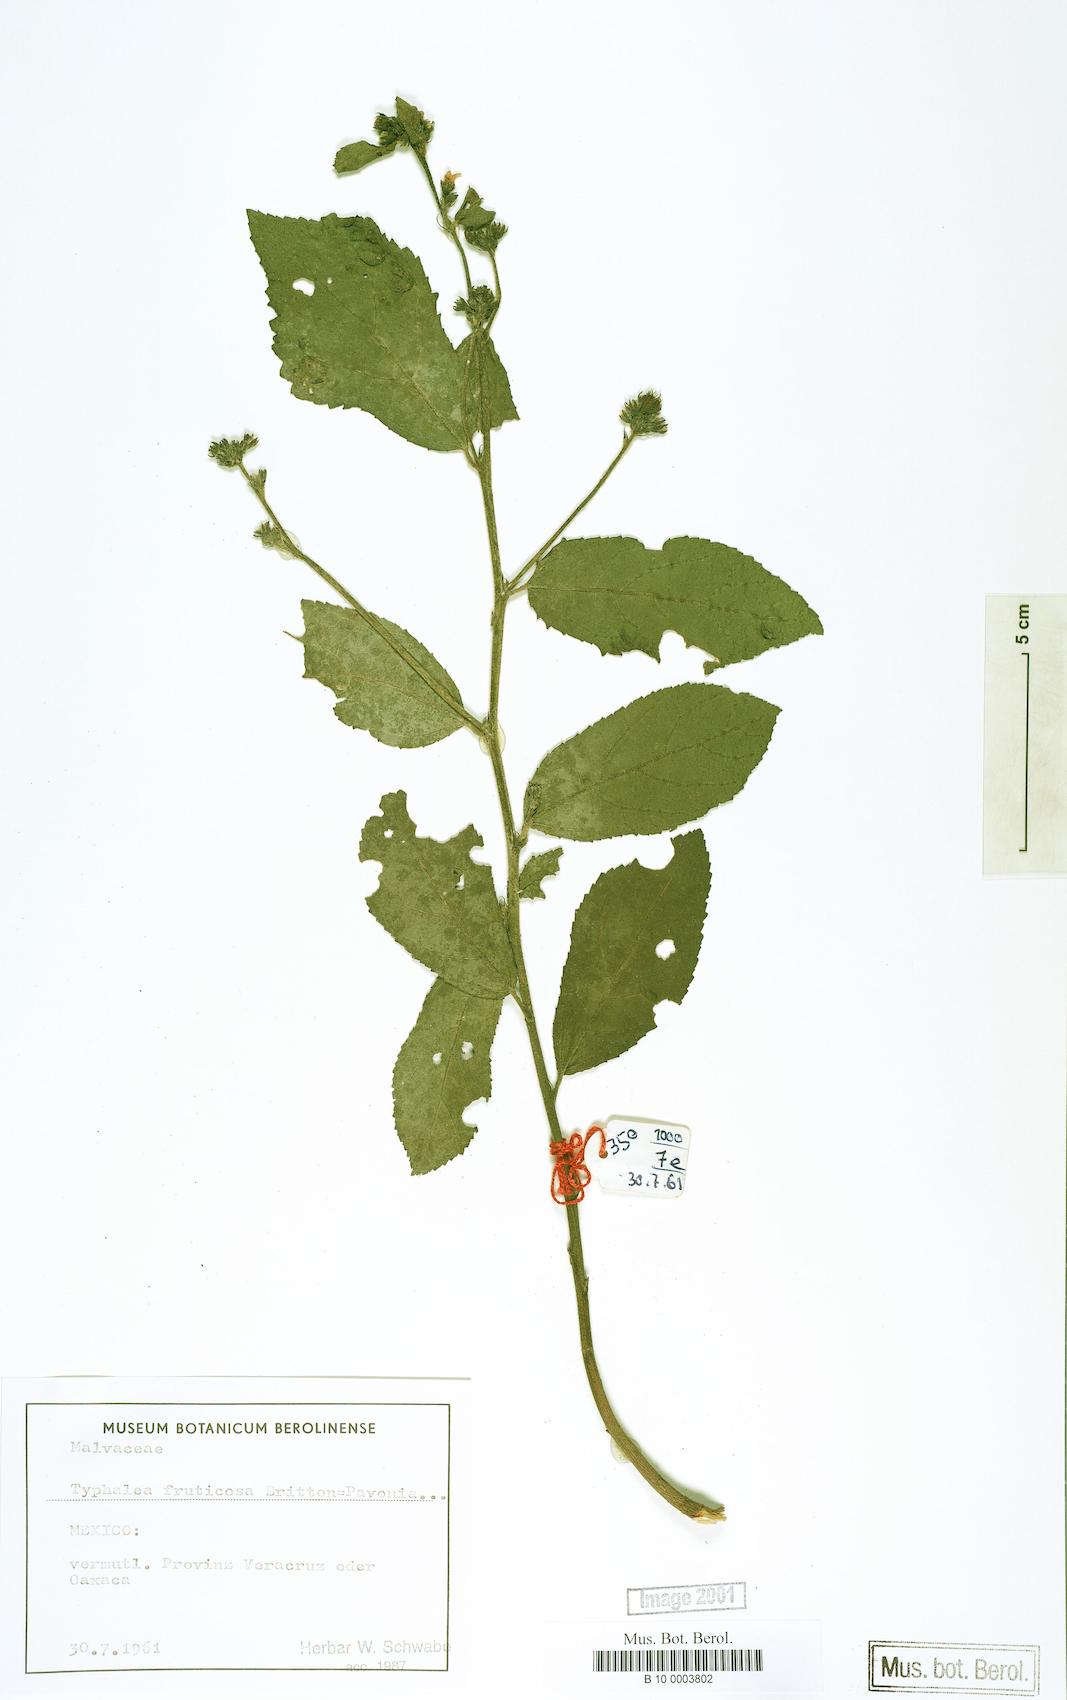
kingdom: Plantae
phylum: Tracheophyta
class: Magnoliopsida
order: Malvales
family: Malvaceae
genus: Pavonia
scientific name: Pavonia
